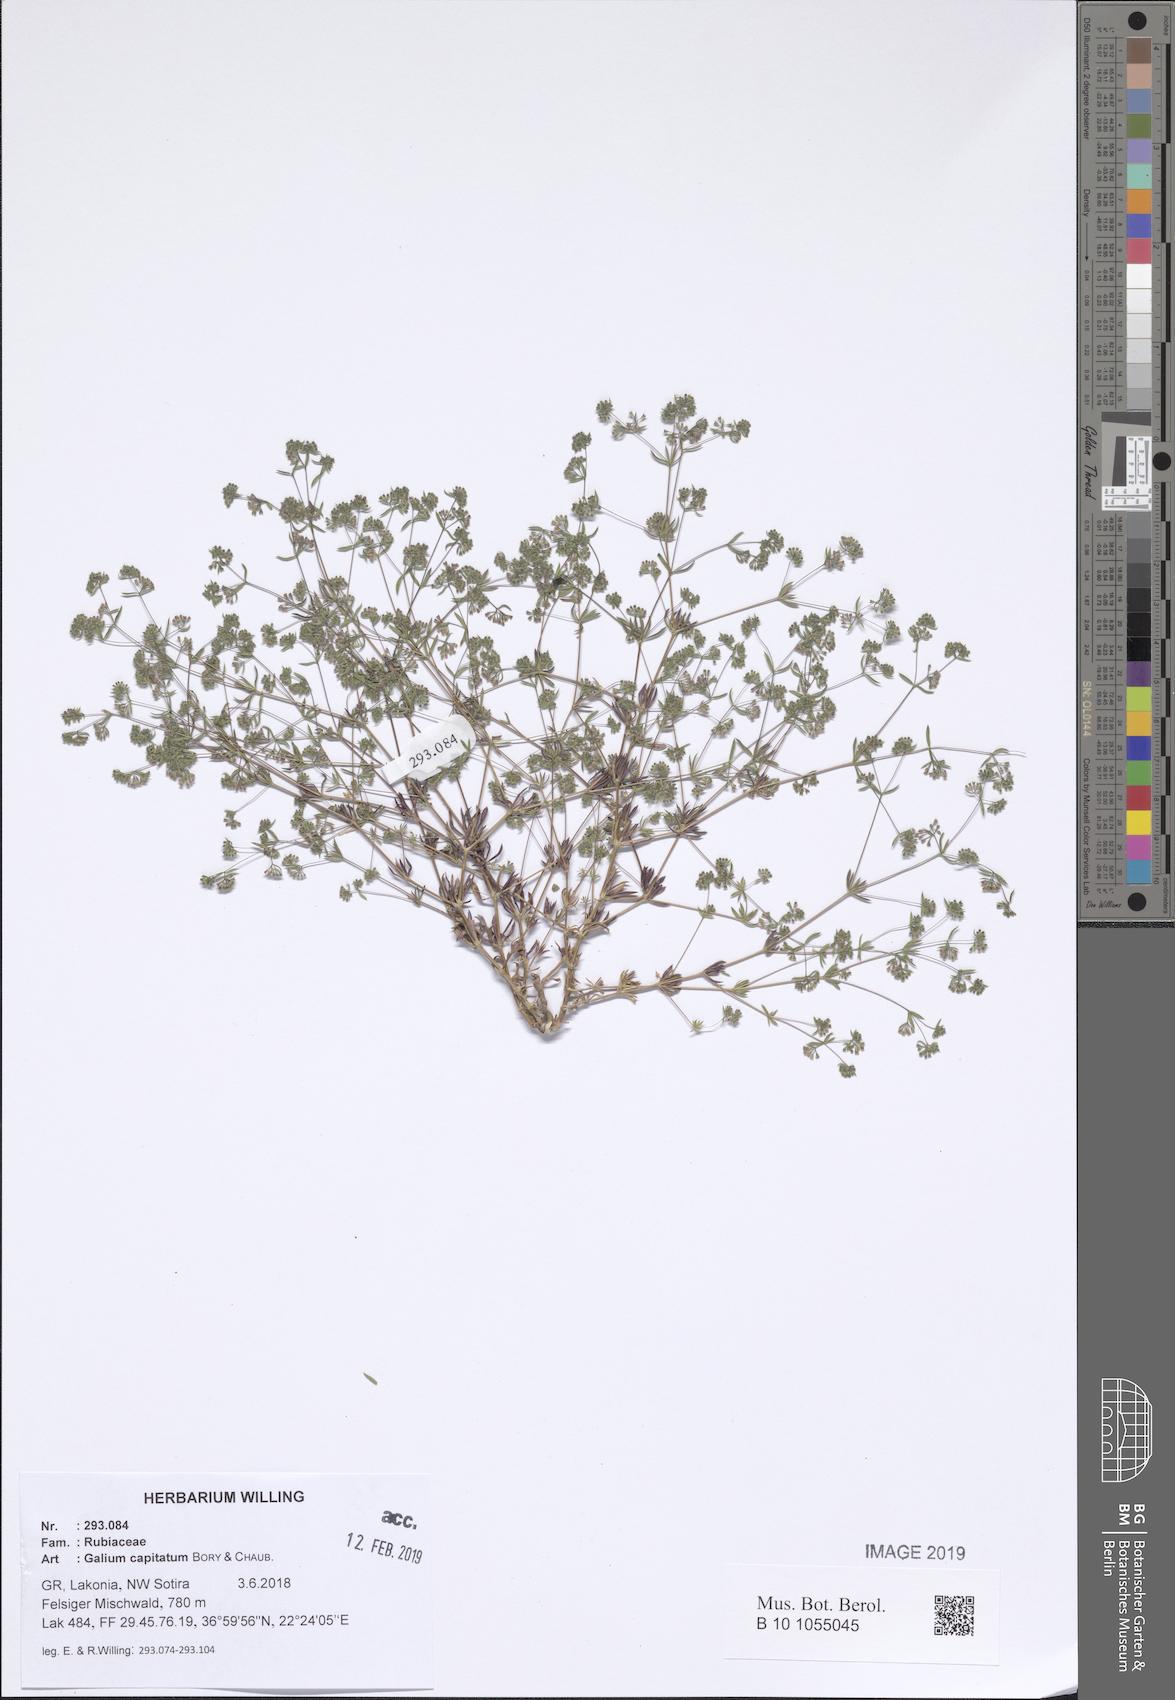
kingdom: Plantae
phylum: Tracheophyta
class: Magnoliopsida
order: Gentianales
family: Rubiaceae
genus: Galium
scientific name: Galium capitatum
